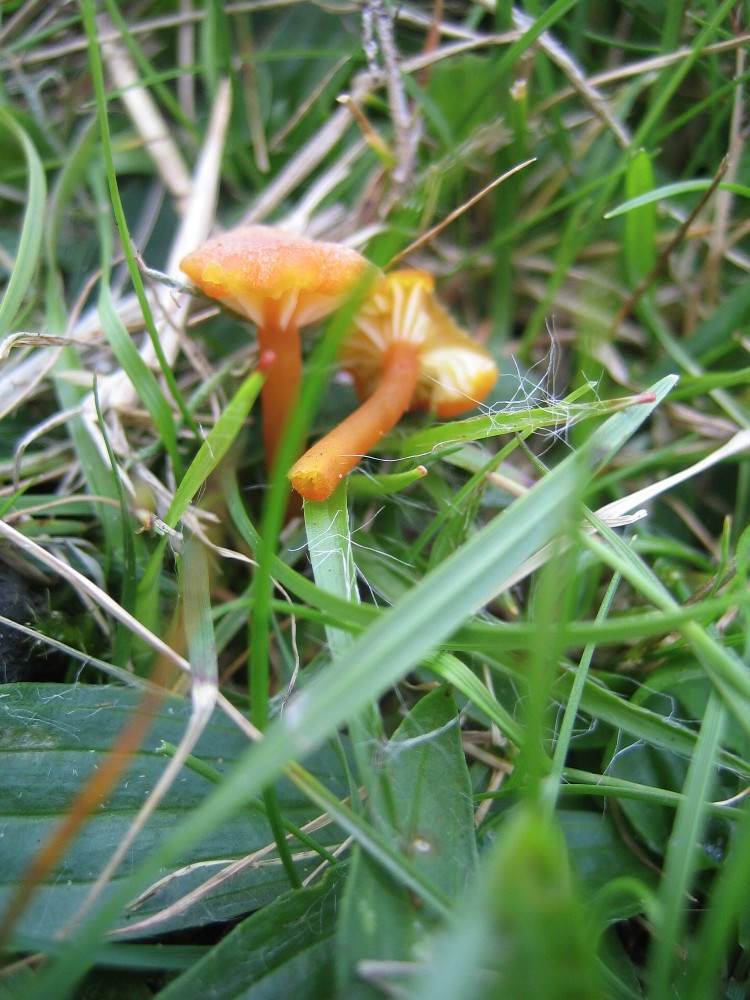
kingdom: Fungi
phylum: Basidiomycota
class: Agaricomycetes
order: Agaricales
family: Hygrophoraceae
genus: Hygrocybe
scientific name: Hygrocybe cantharellus
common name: kantarel-vokshat
